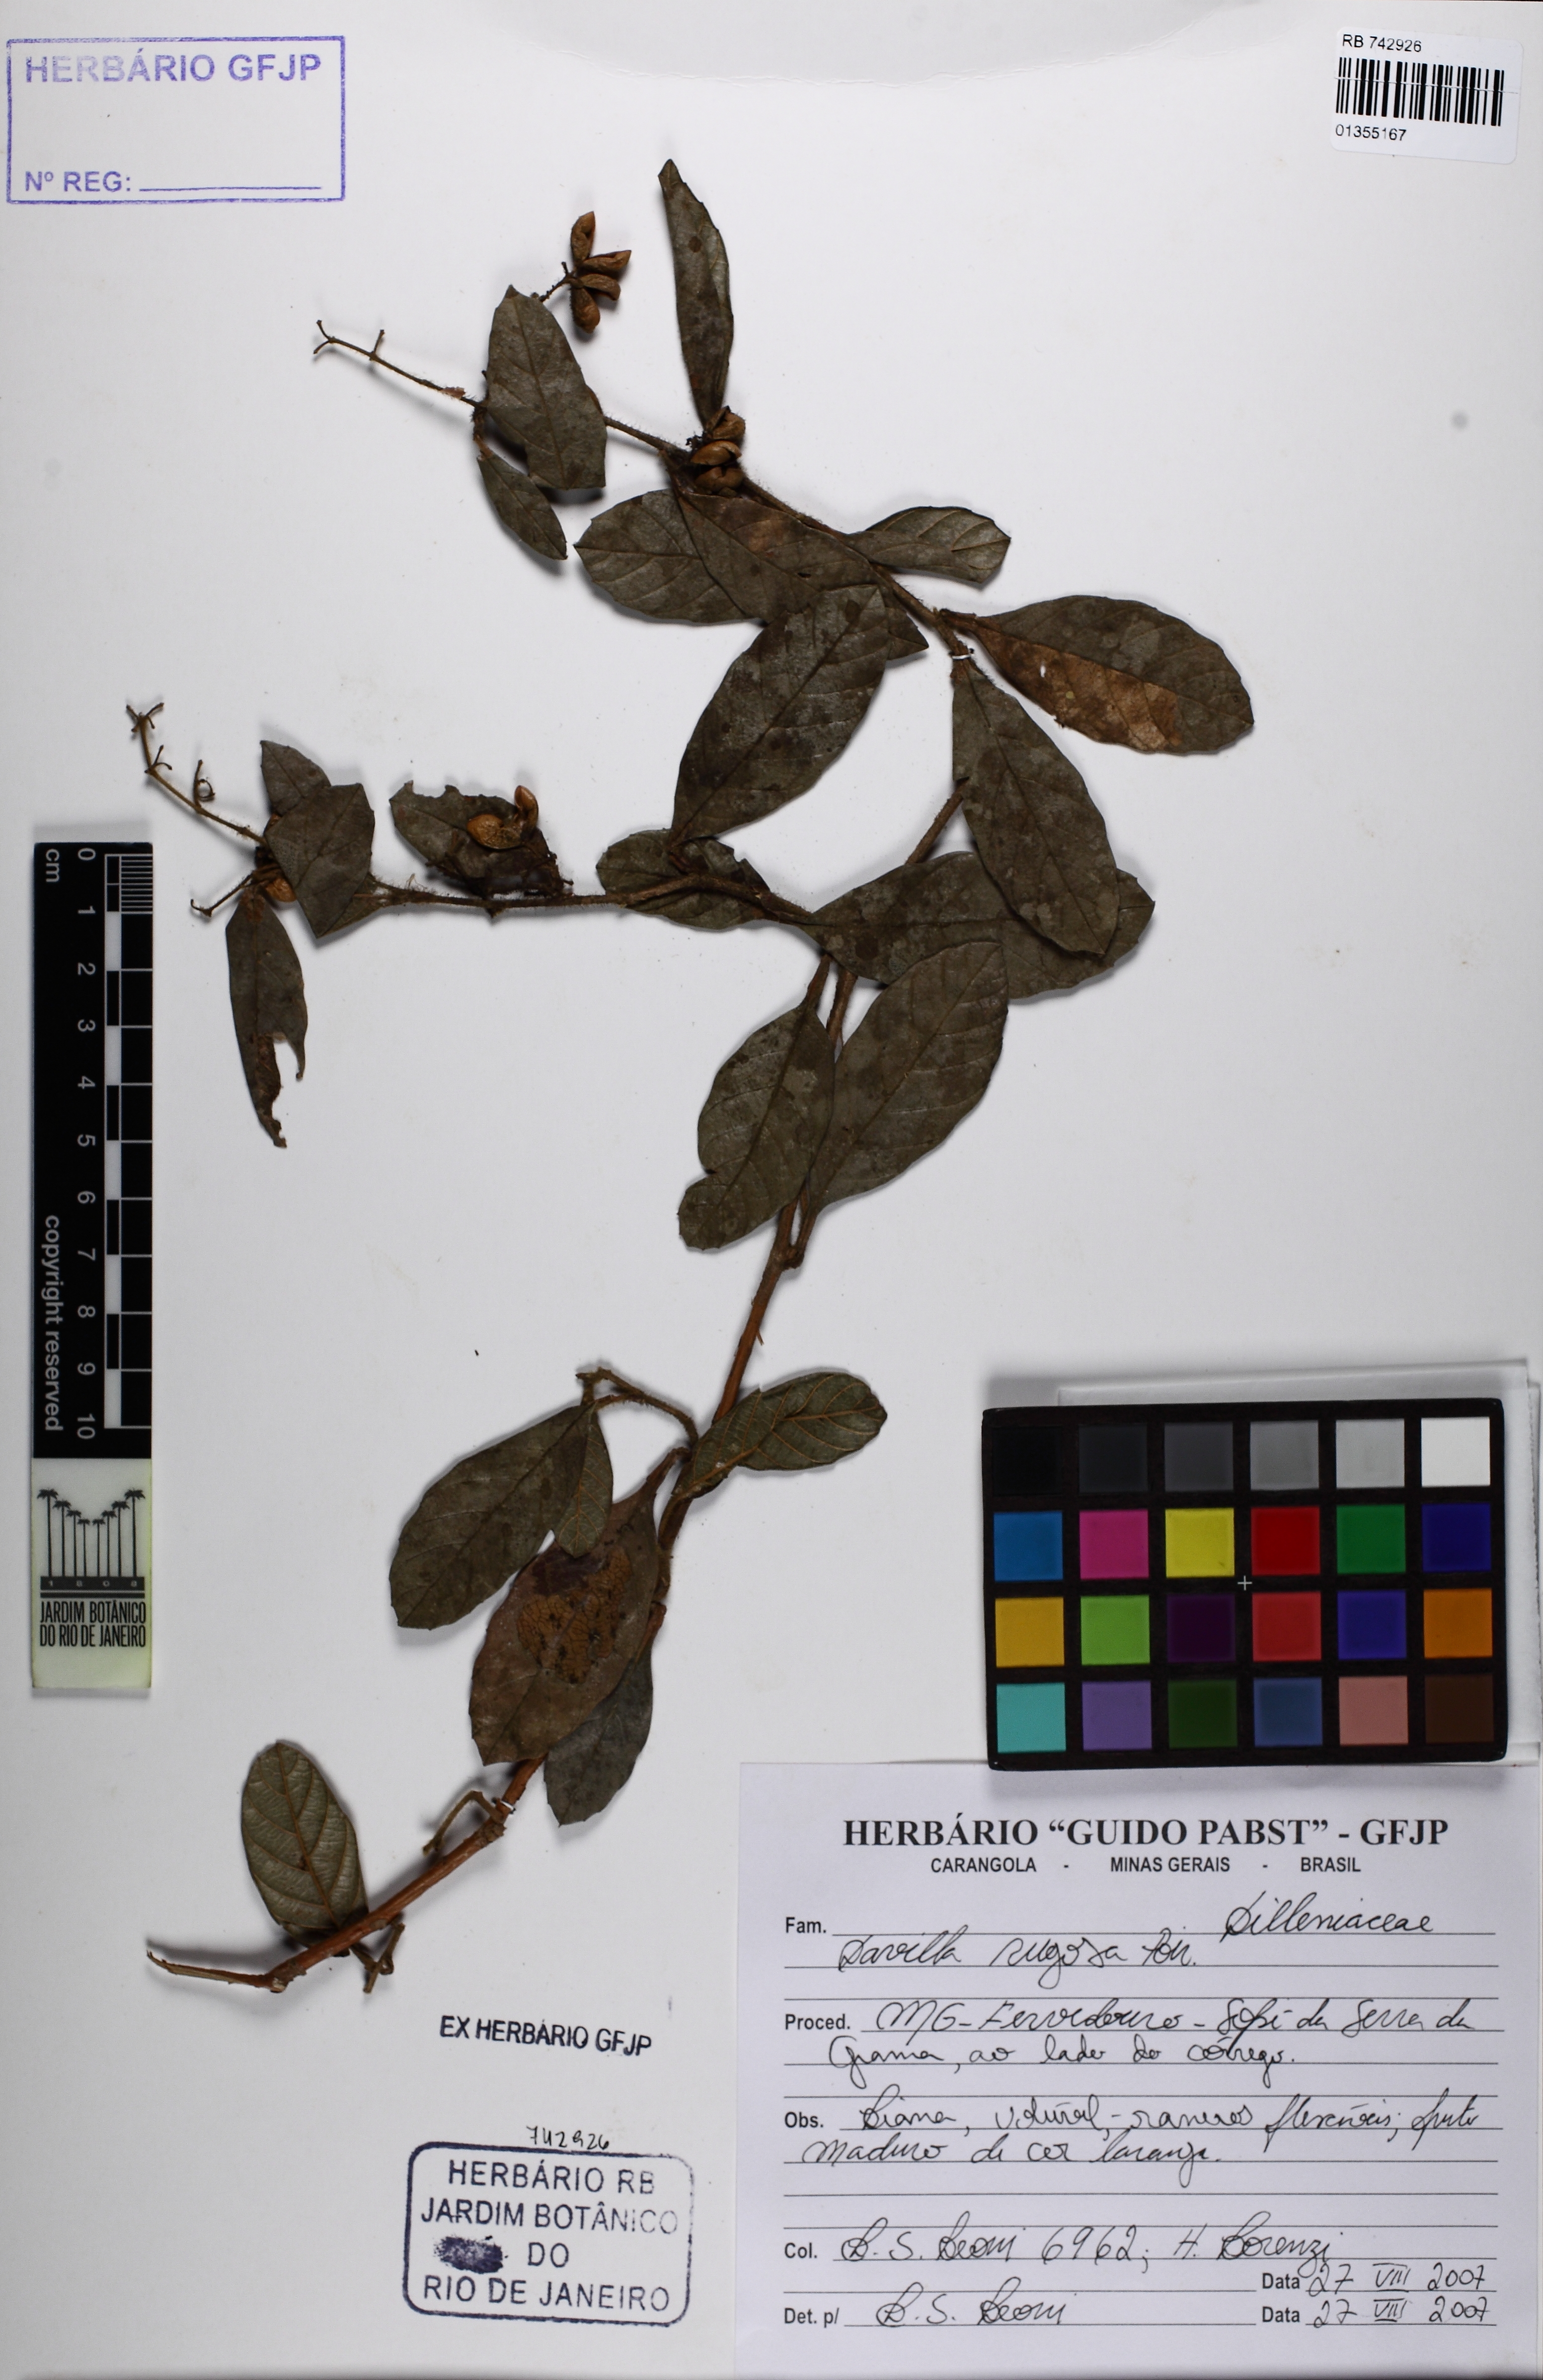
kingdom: Plantae
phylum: Tracheophyta
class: Magnoliopsida
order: Dilleniales
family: Dilleniaceae
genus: Davilla
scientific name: Davilla rugosa
